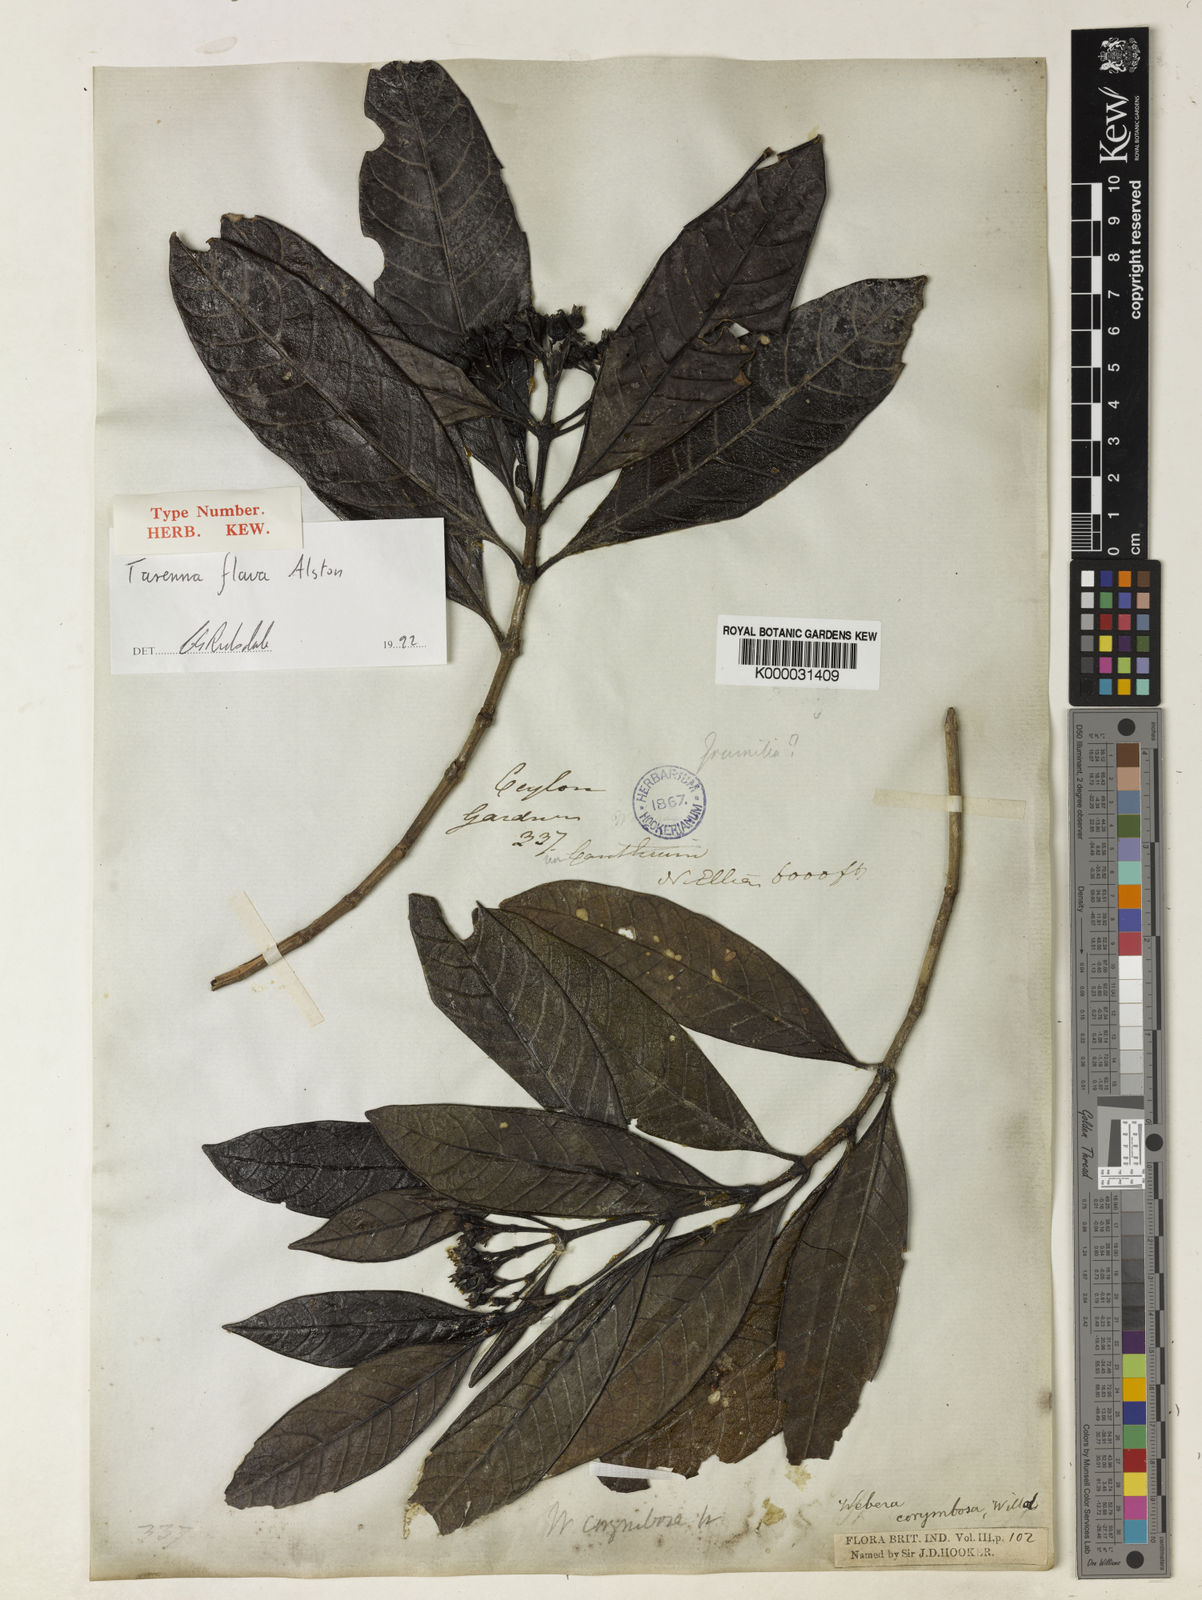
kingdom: Plantae
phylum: Tracheophyta
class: Magnoliopsida
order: Gentianales
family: Rubiaceae
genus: Tarenna
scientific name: Tarenna flava
